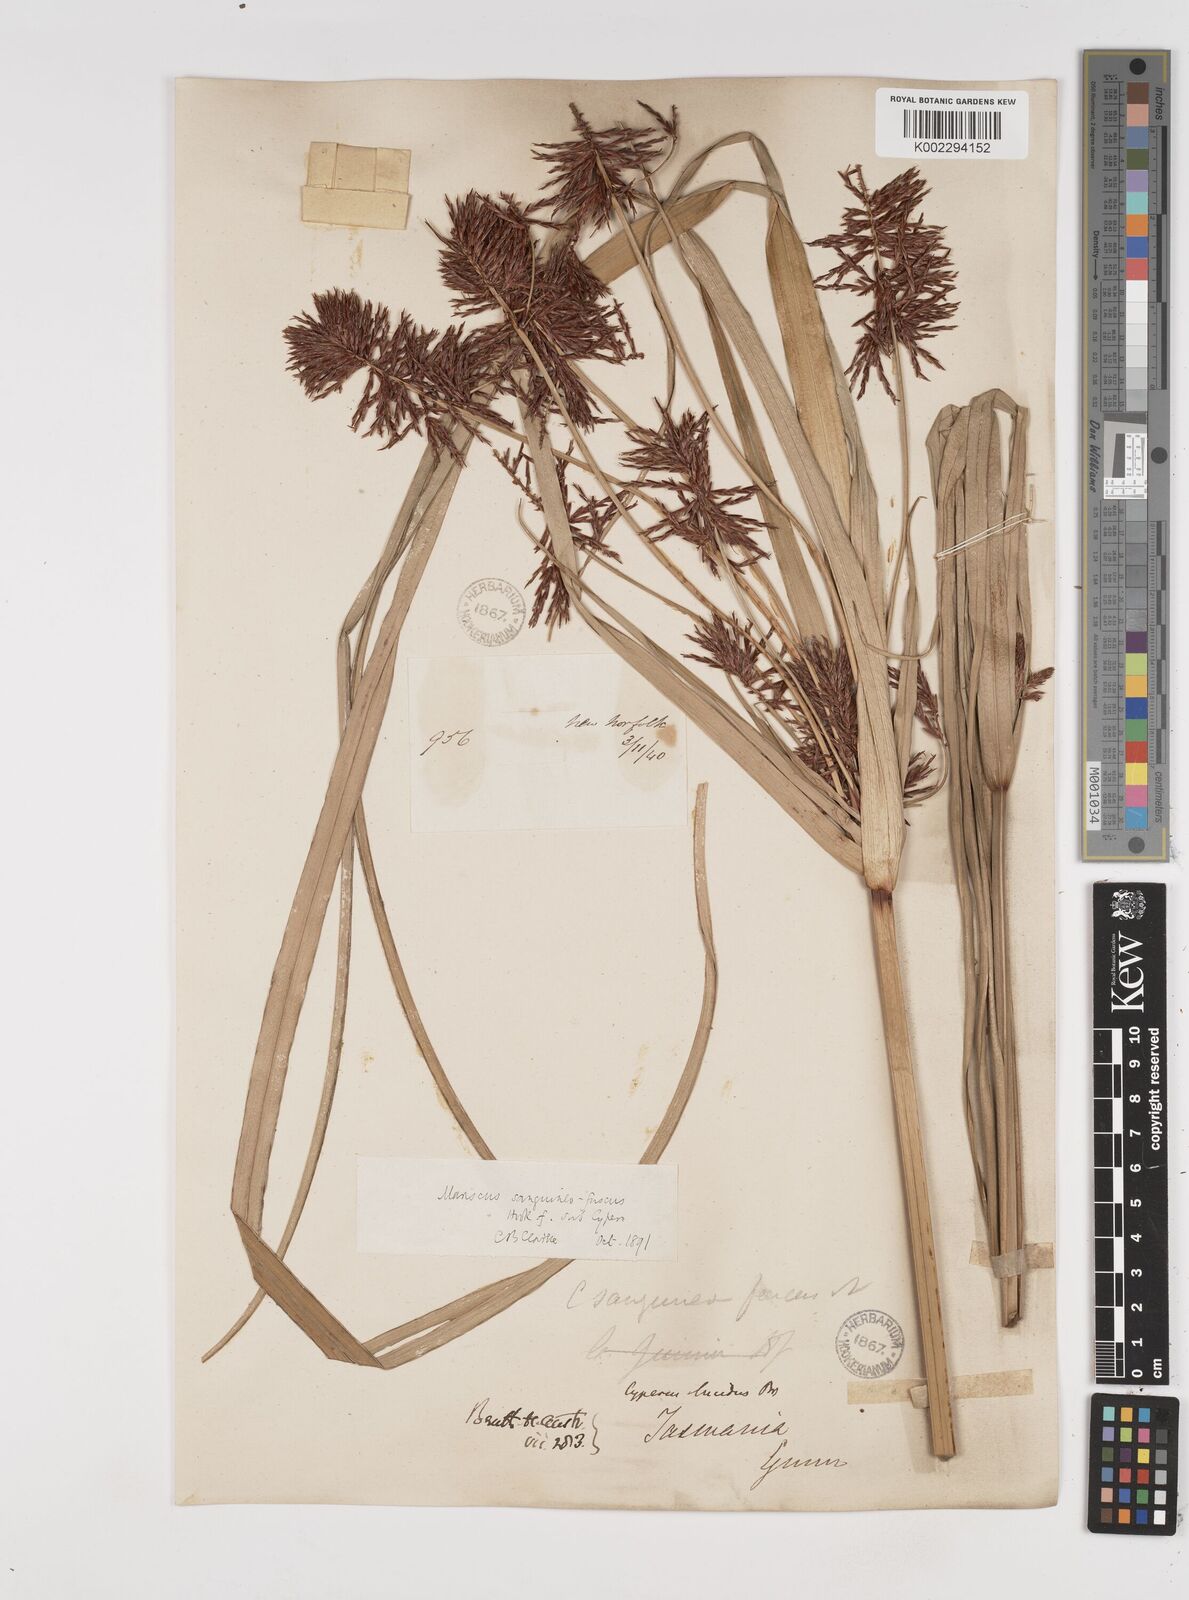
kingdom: Plantae
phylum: Tracheophyta
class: Liliopsida
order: Poales
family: Cyperaceae
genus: Cyperus
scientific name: Cyperus lucidus
